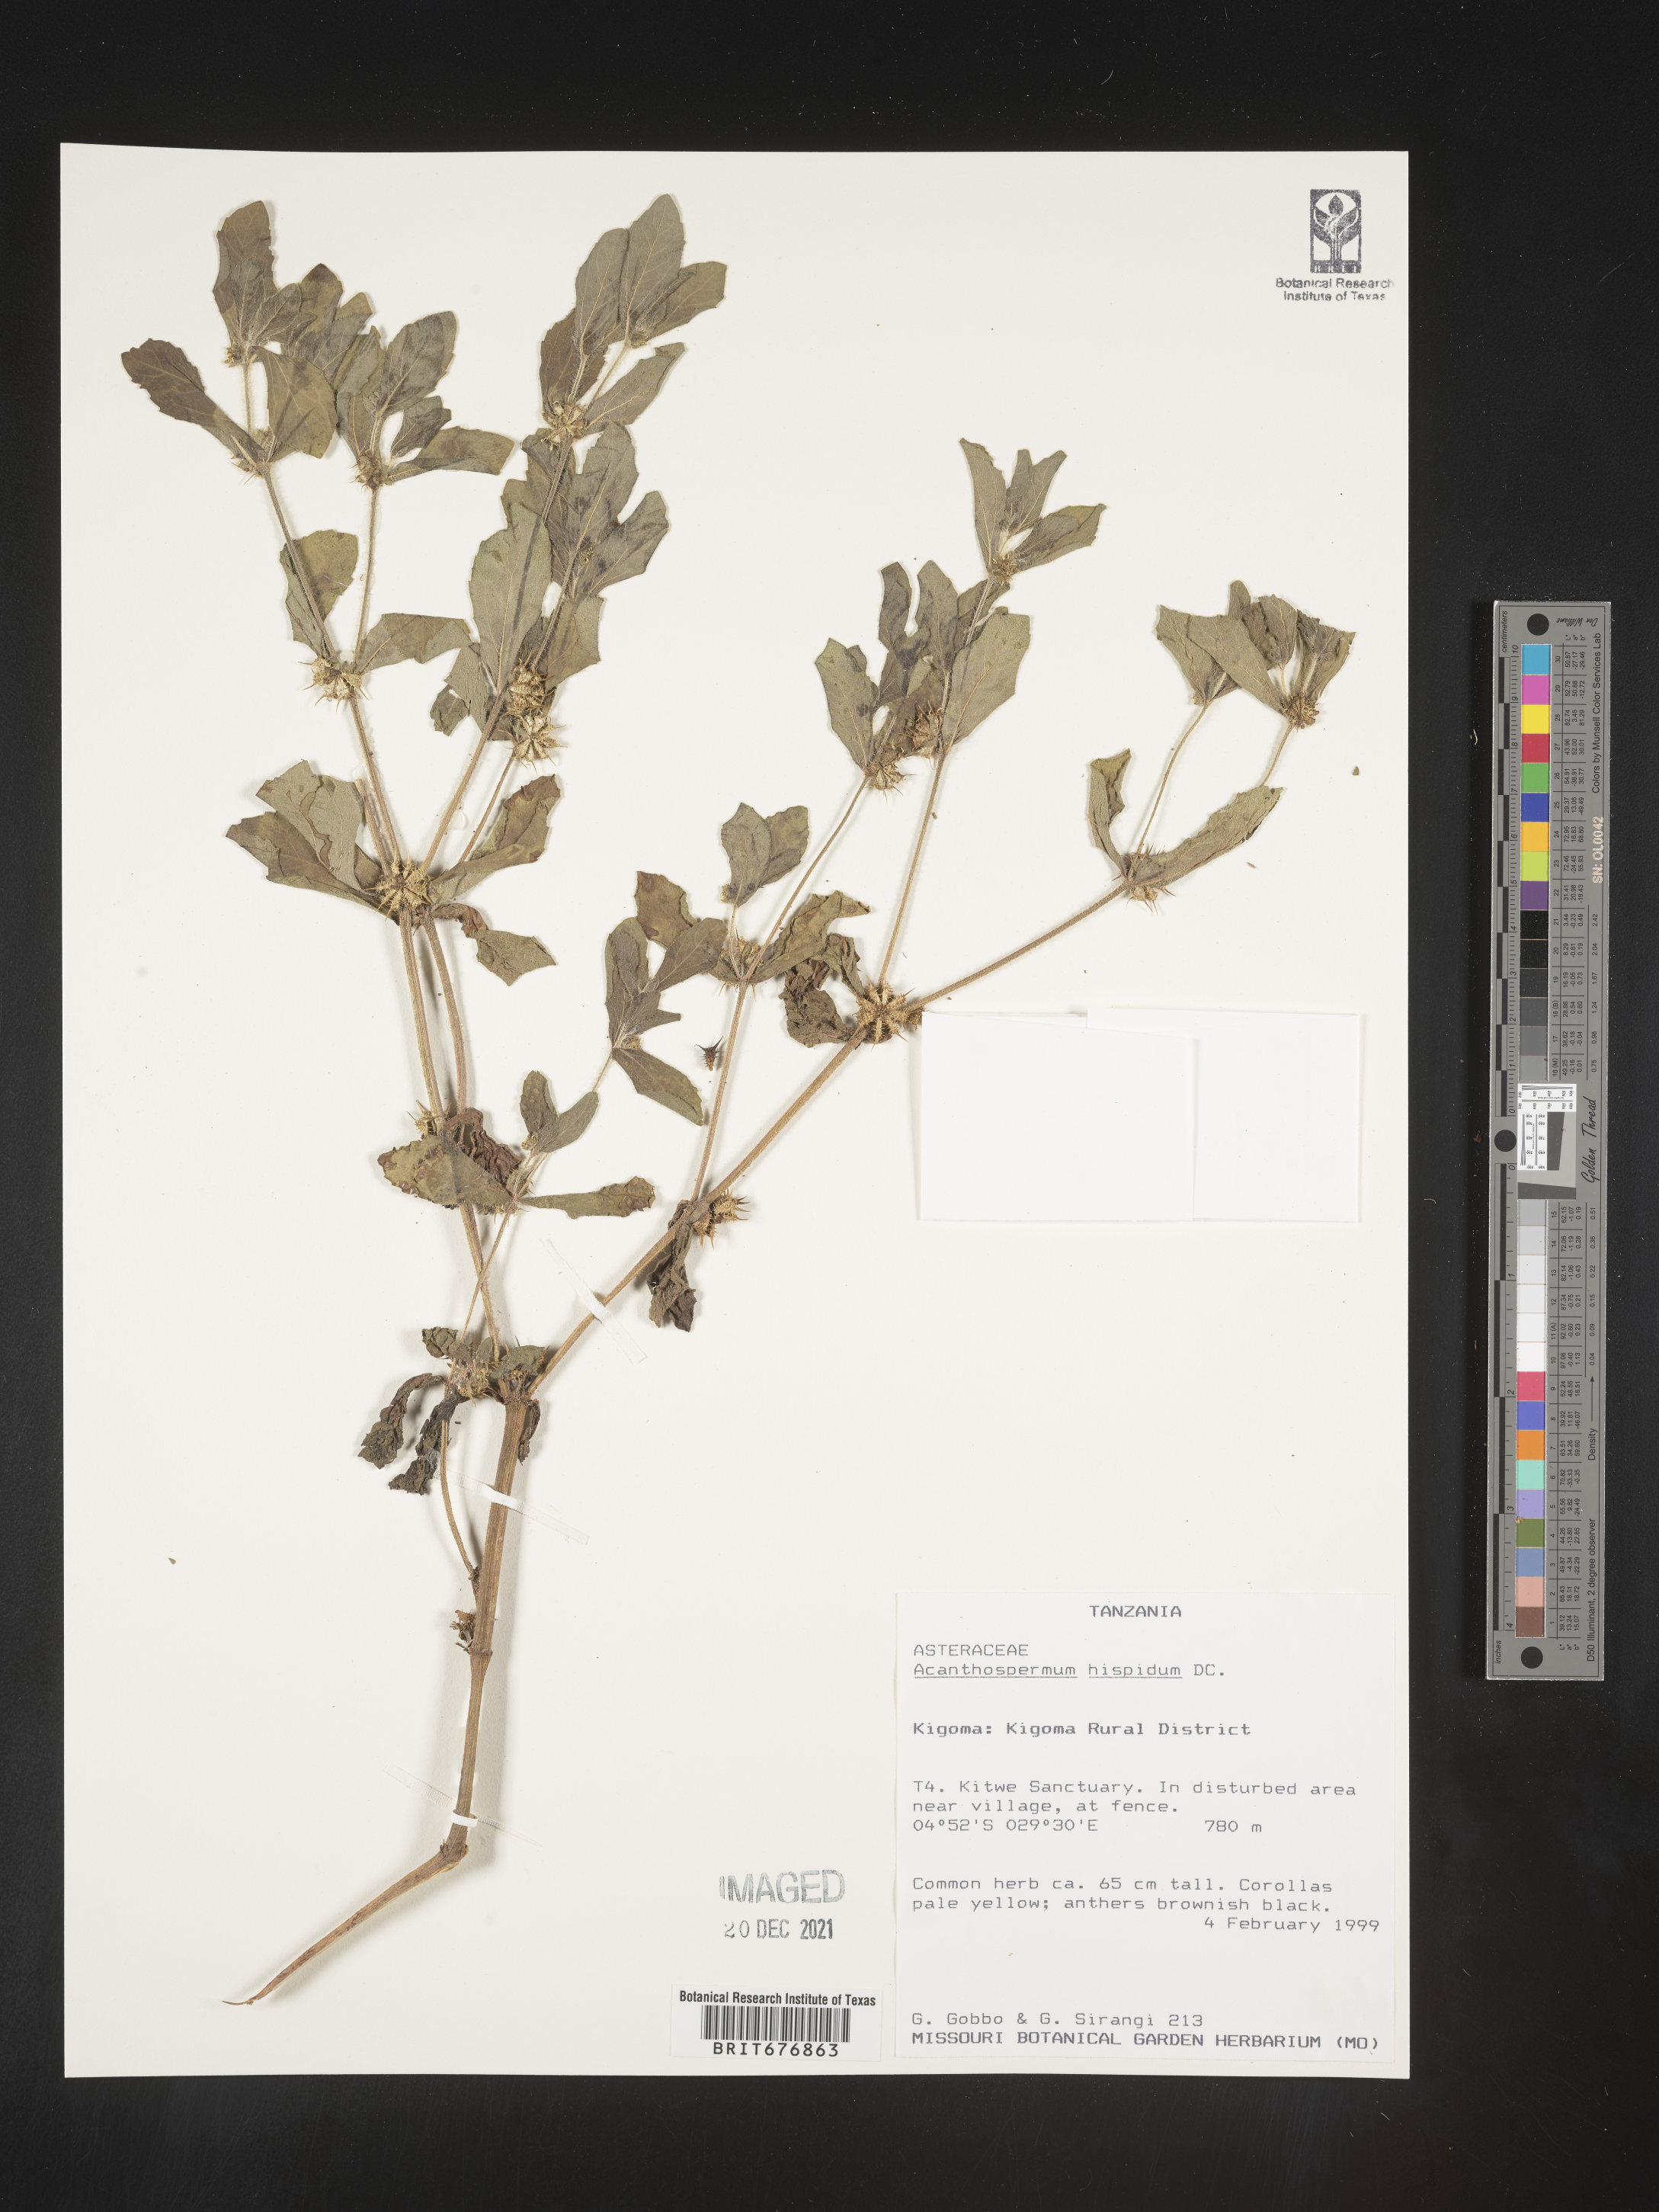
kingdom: Plantae
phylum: Tracheophyta
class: Magnoliopsida
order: Asterales
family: Asteraceae
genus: Acanthospermum
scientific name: Acanthospermum
